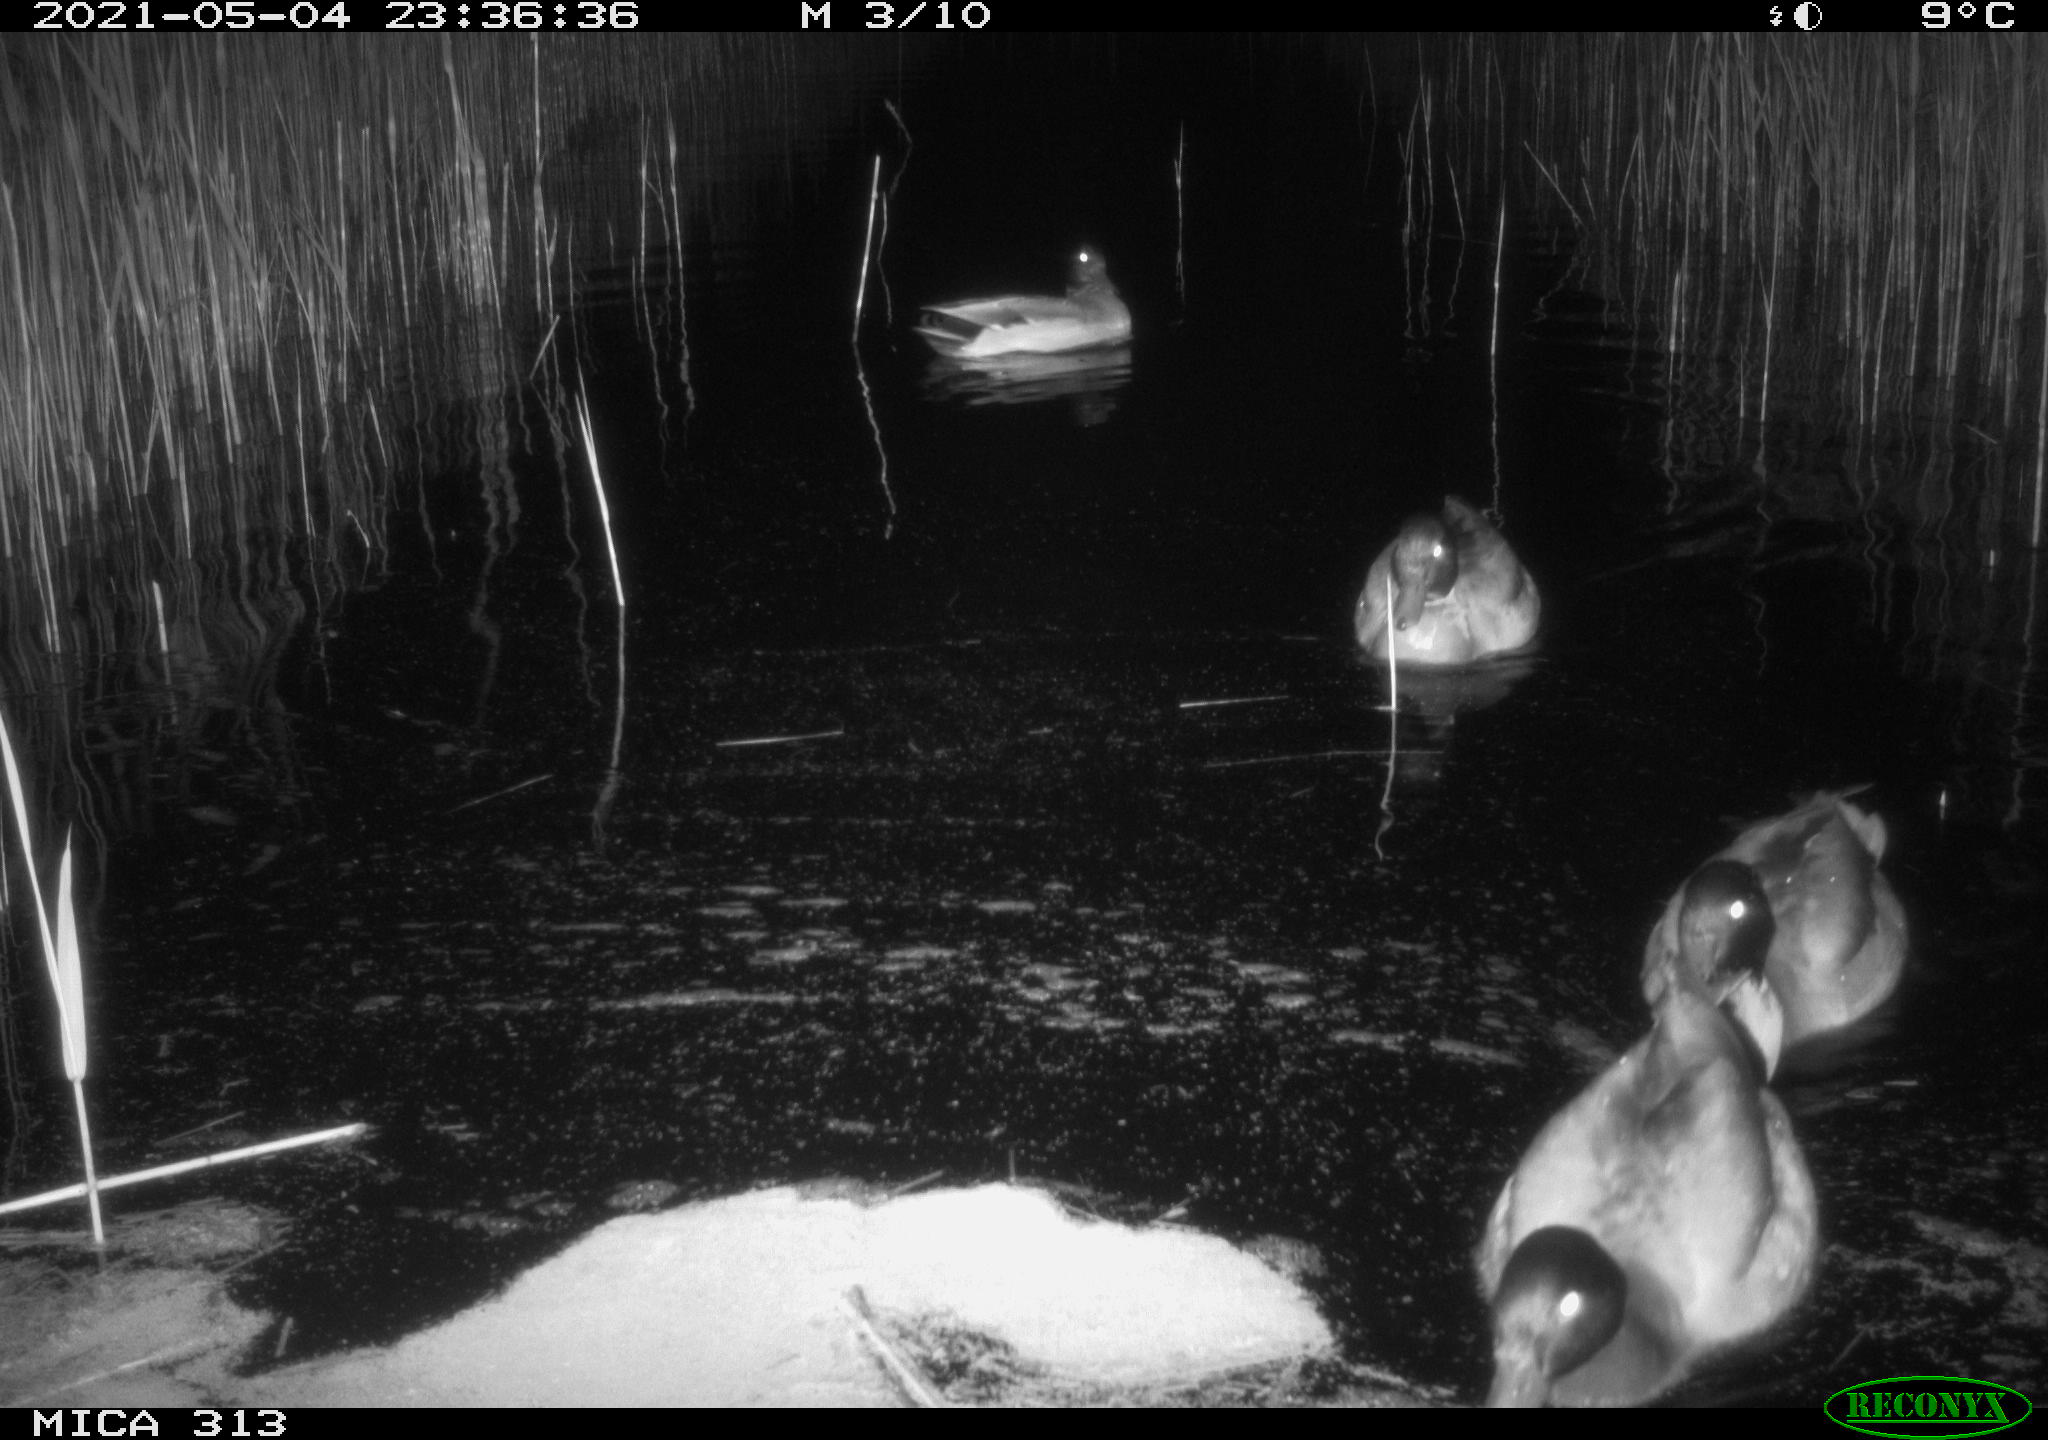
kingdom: Animalia
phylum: Chordata
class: Aves
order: Anseriformes
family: Anatidae
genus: Anas
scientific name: Anas platyrhynchos
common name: Mallard
